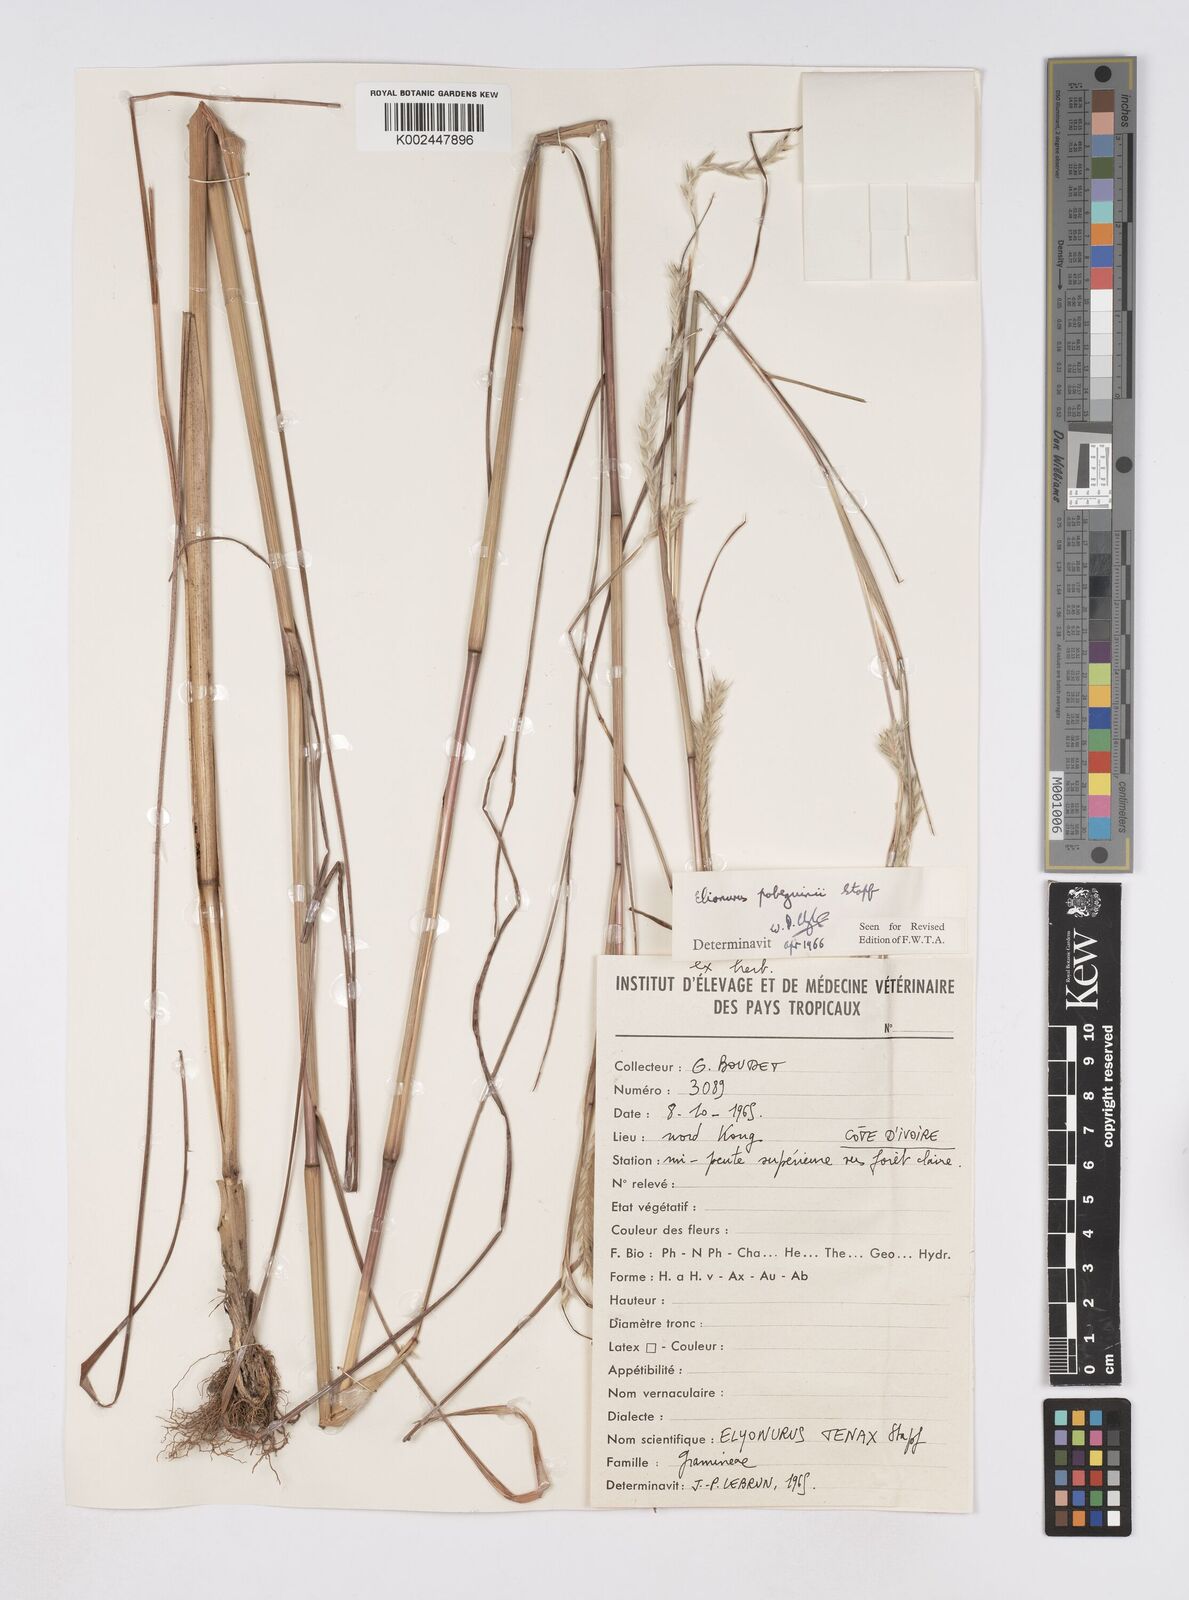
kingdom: Plantae
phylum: Tracheophyta
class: Liliopsida
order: Poales
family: Poaceae
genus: Elionurus
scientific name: Elionurus ciliaris
